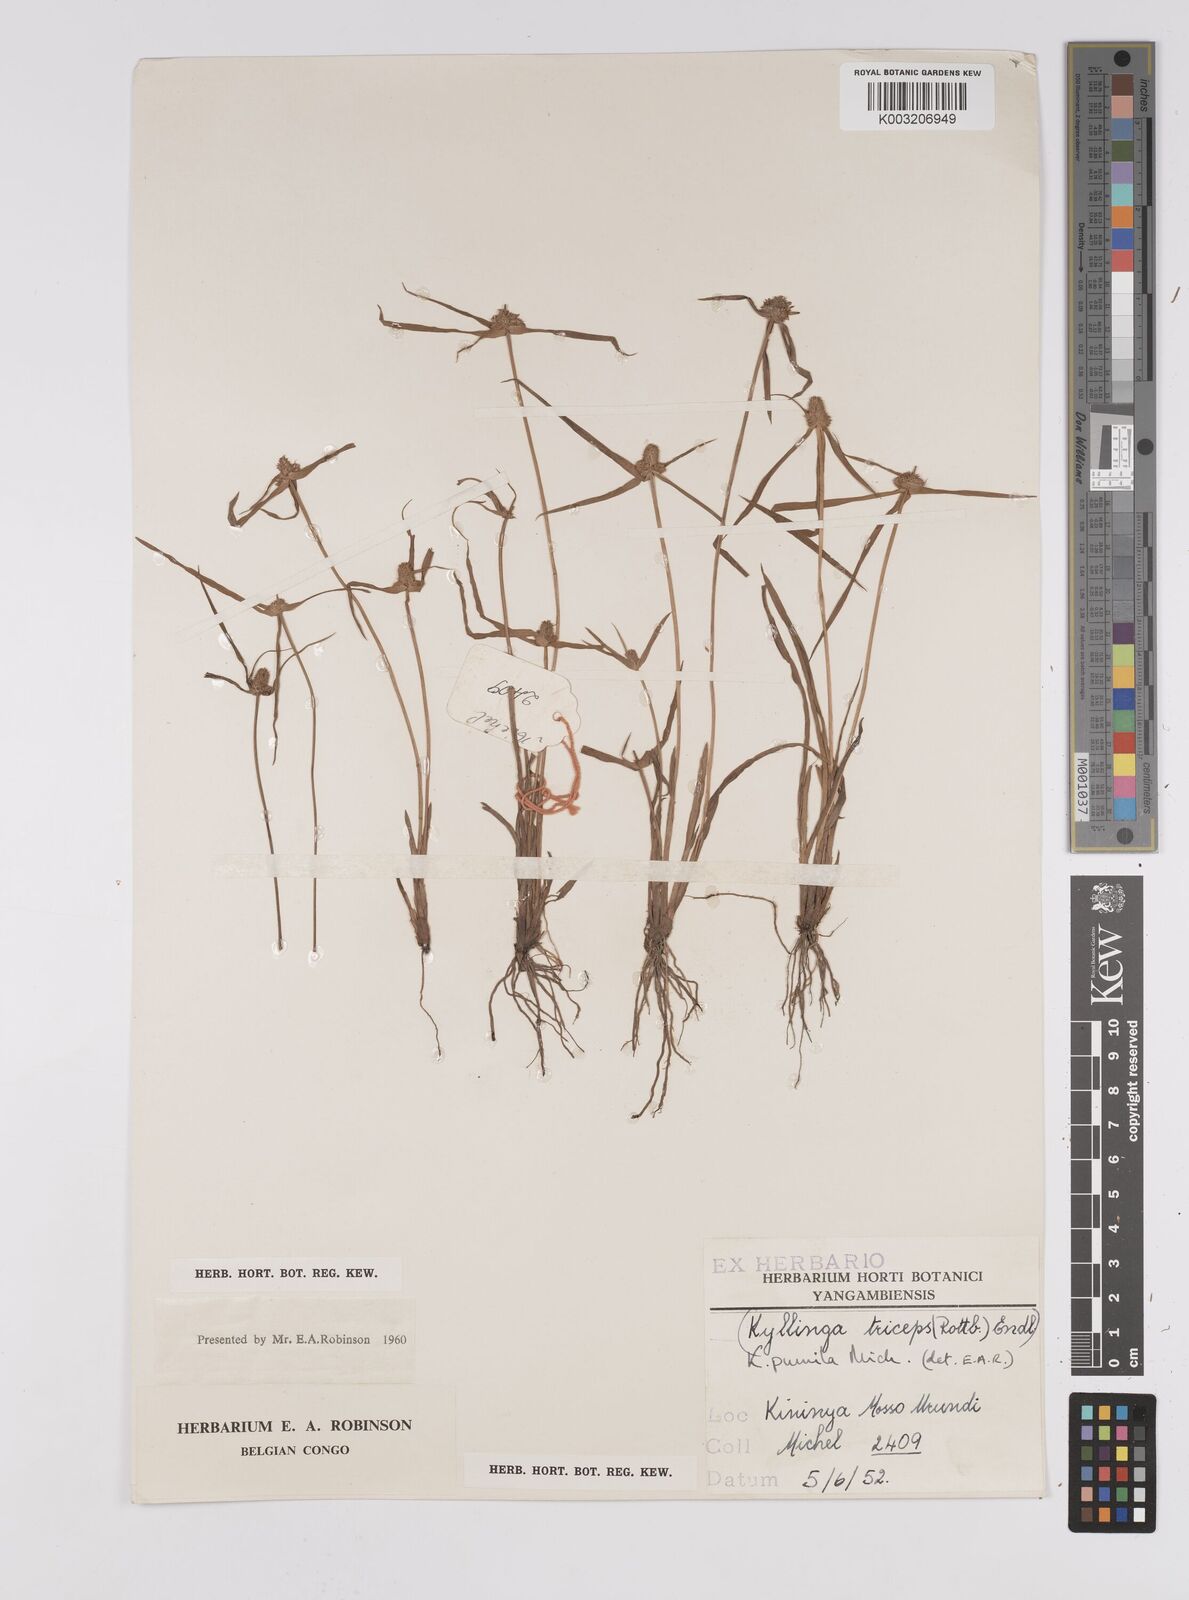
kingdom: Plantae
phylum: Tracheophyta
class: Liliopsida
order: Poales
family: Cyperaceae
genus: Cyperus
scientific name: Cyperus hortensis
